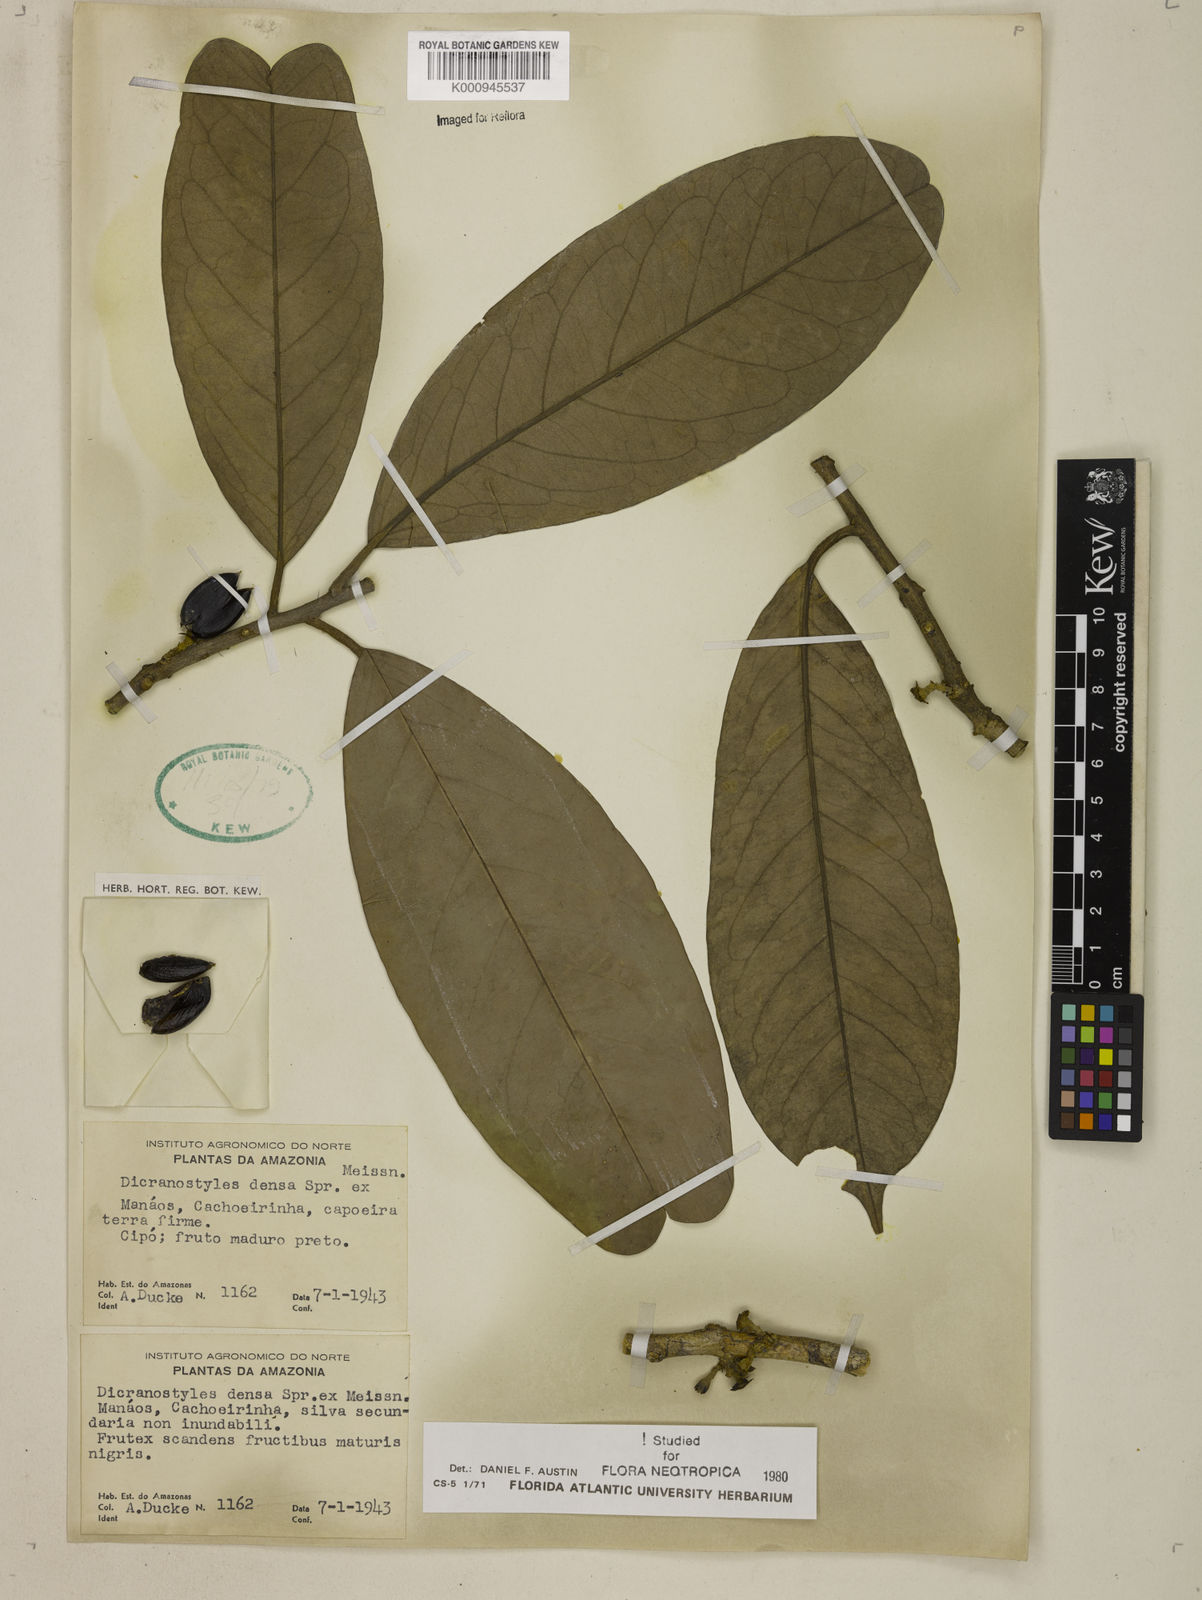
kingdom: Plantae
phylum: Tracheophyta
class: Magnoliopsida
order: Solanales
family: Convolvulaceae
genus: Dicranostyles
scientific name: Dicranostyles densa
